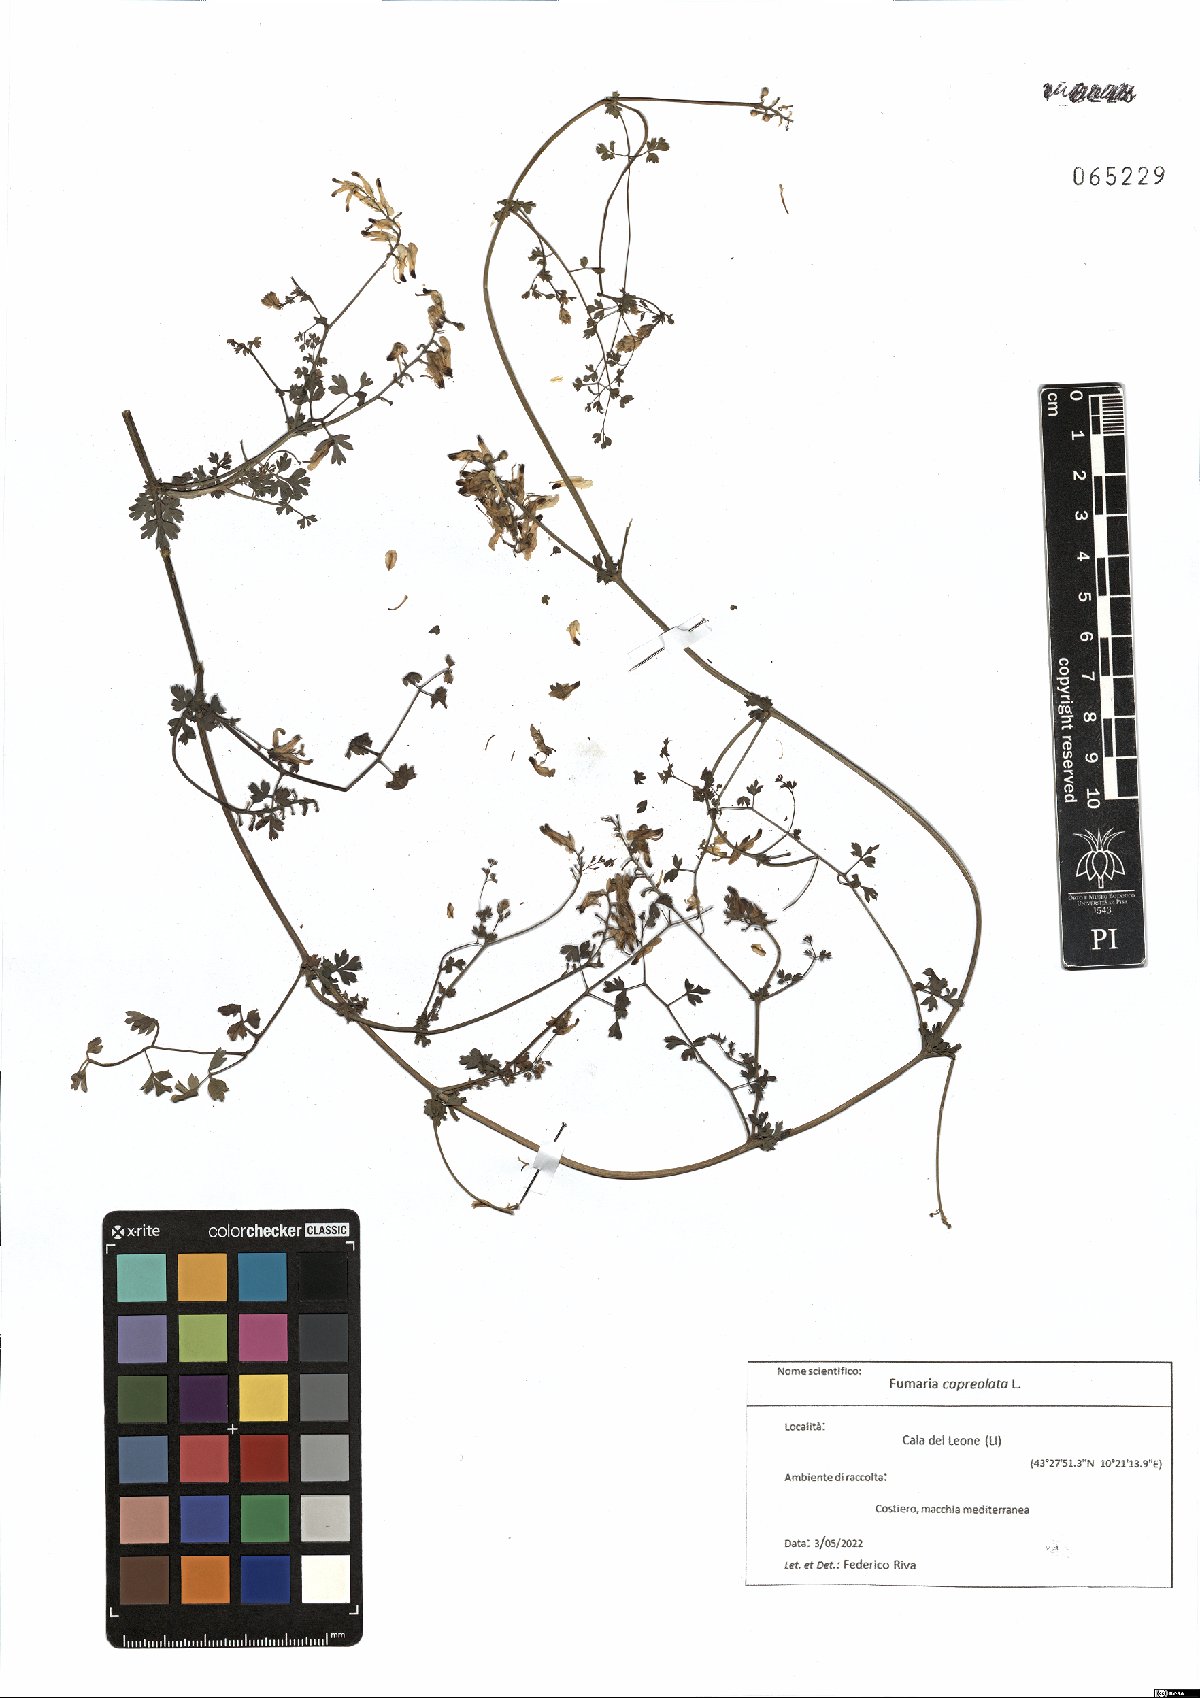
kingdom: Plantae
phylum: Tracheophyta
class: Magnoliopsida
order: Ranunculales
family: Papaveraceae
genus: Fumaria
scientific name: Fumaria capreolata
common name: White ramping-fumitory
